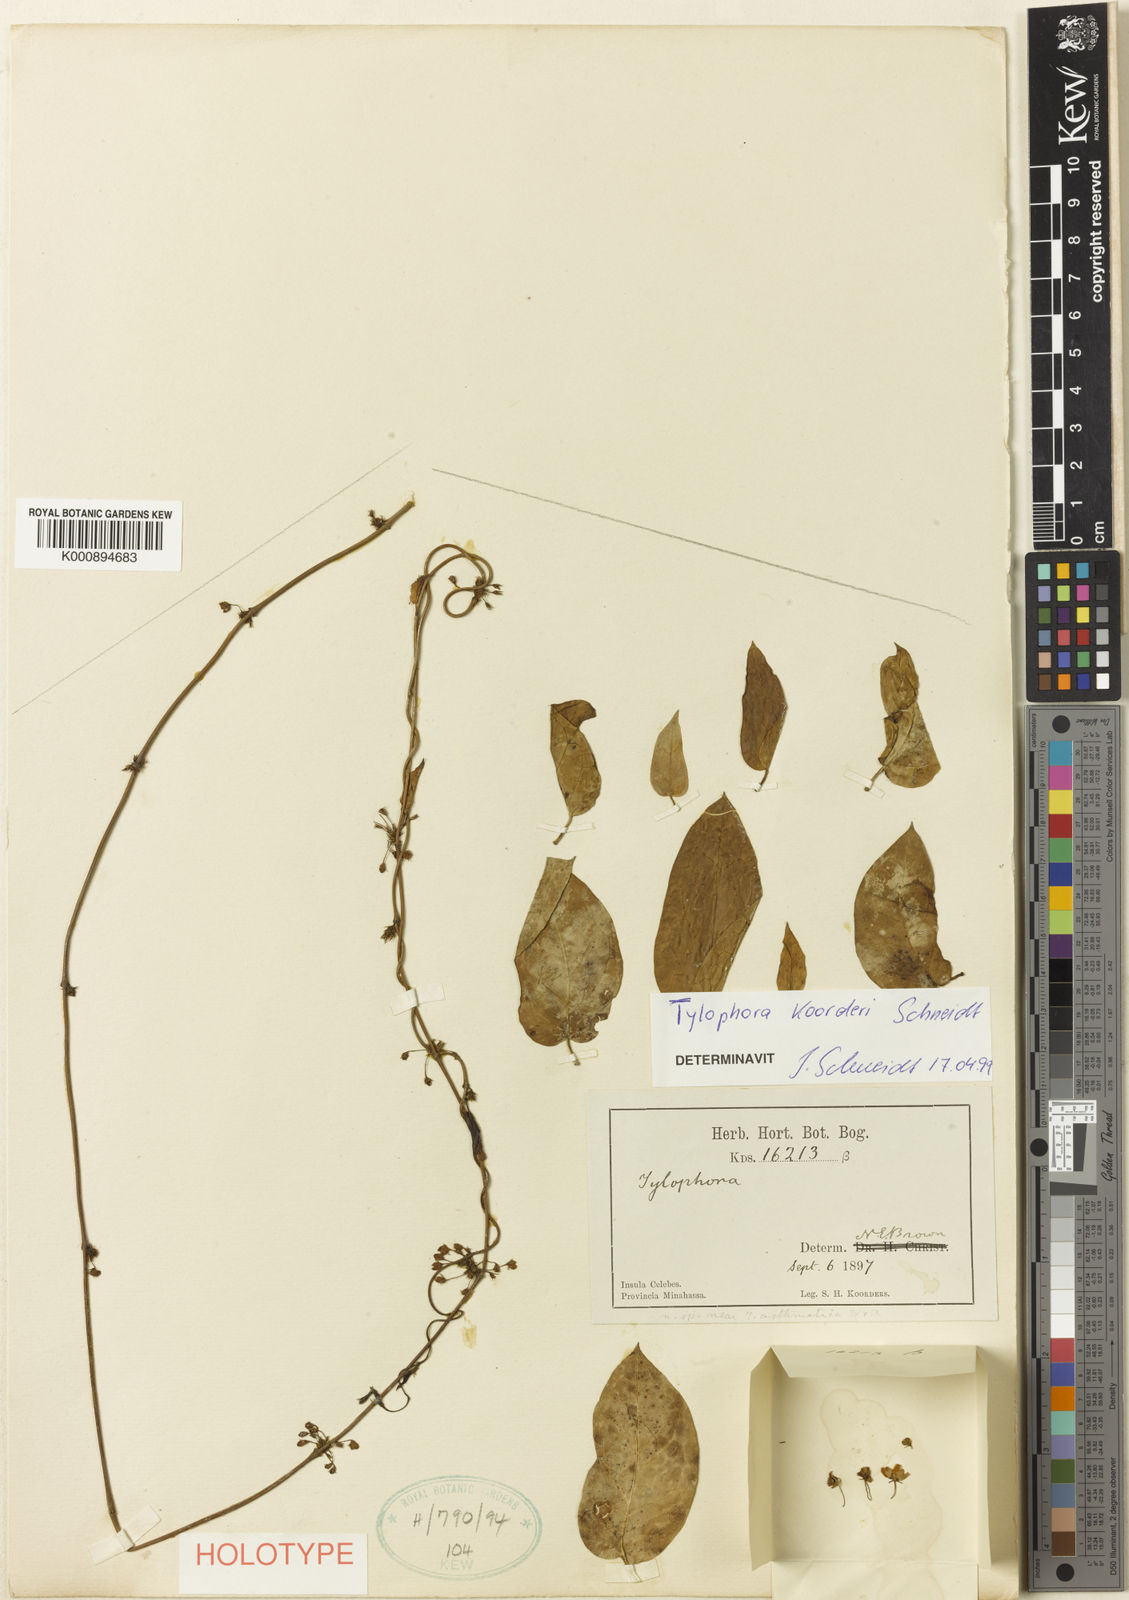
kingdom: Plantae
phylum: Tracheophyta
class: Magnoliopsida
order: Gentianales
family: Apocynaceae
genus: Vincetoxicum
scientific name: Vincetoxicum
